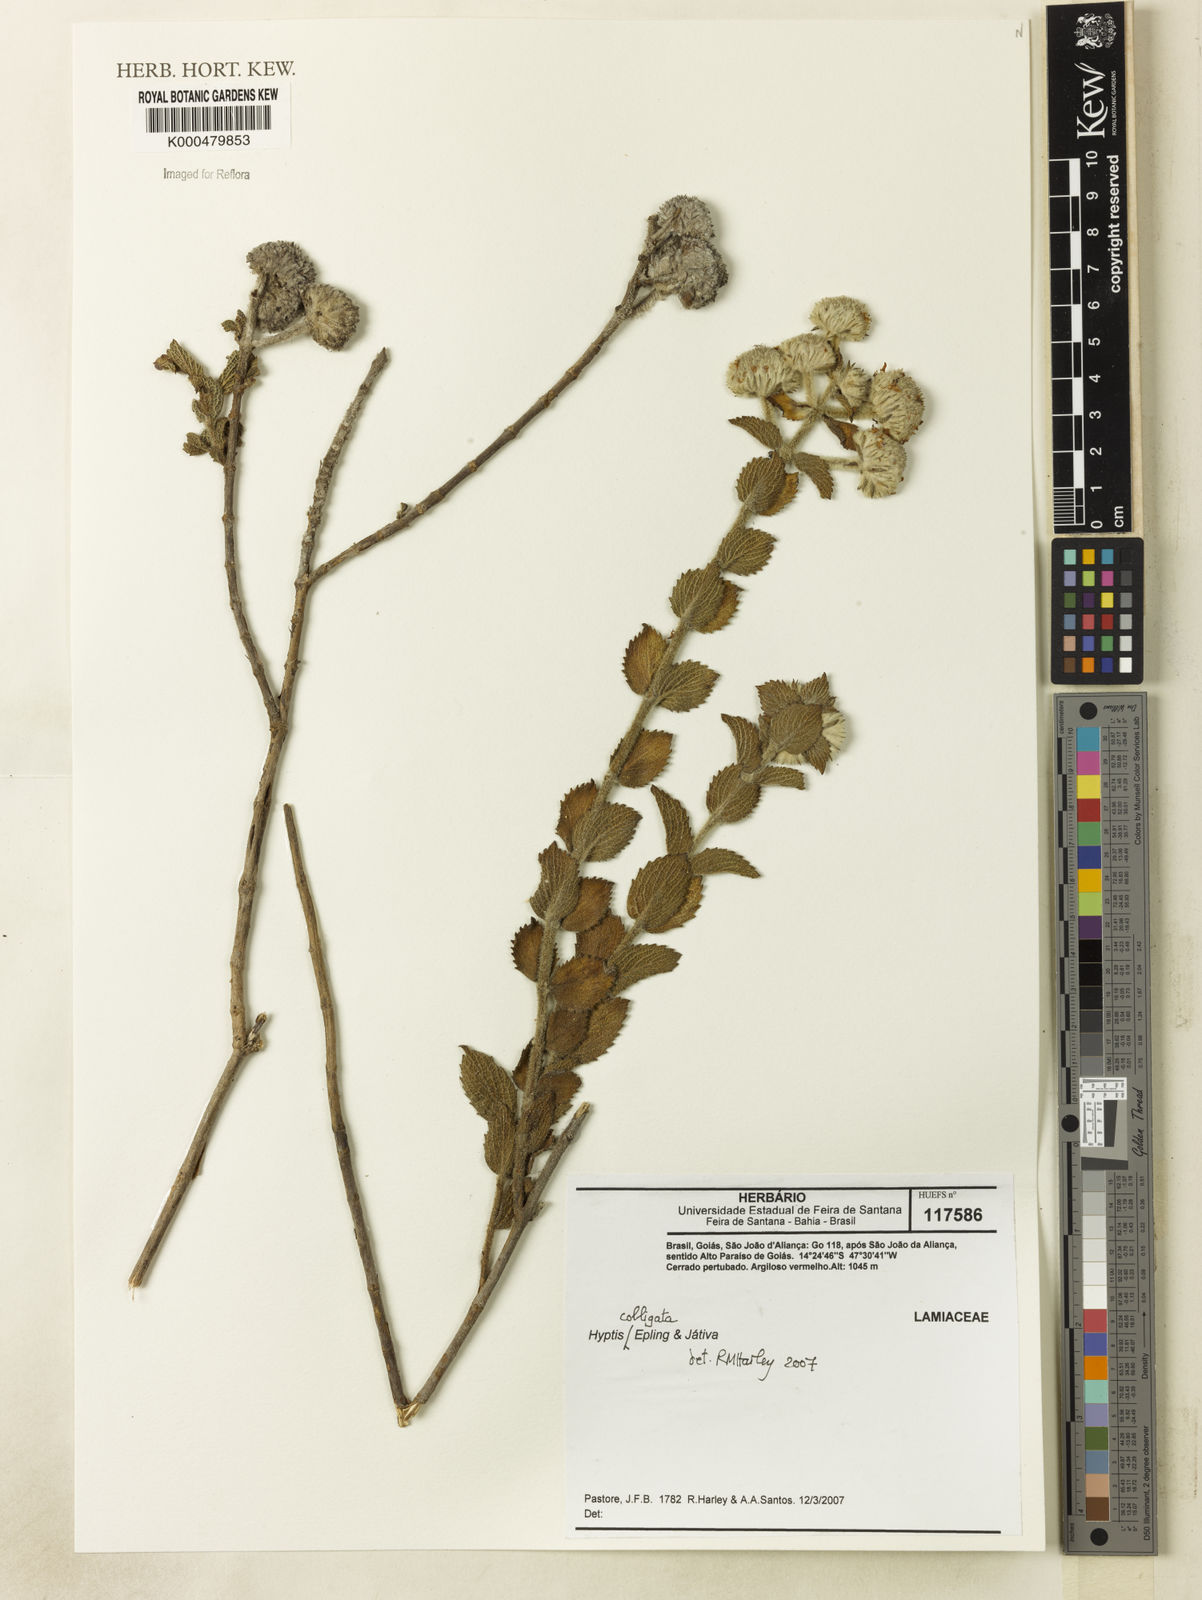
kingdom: Plantae
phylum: Tracheophyta
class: Magnoliopsida
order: Lamiales
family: Lamiaceae
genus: Hyptis
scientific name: Hyptis colligata
